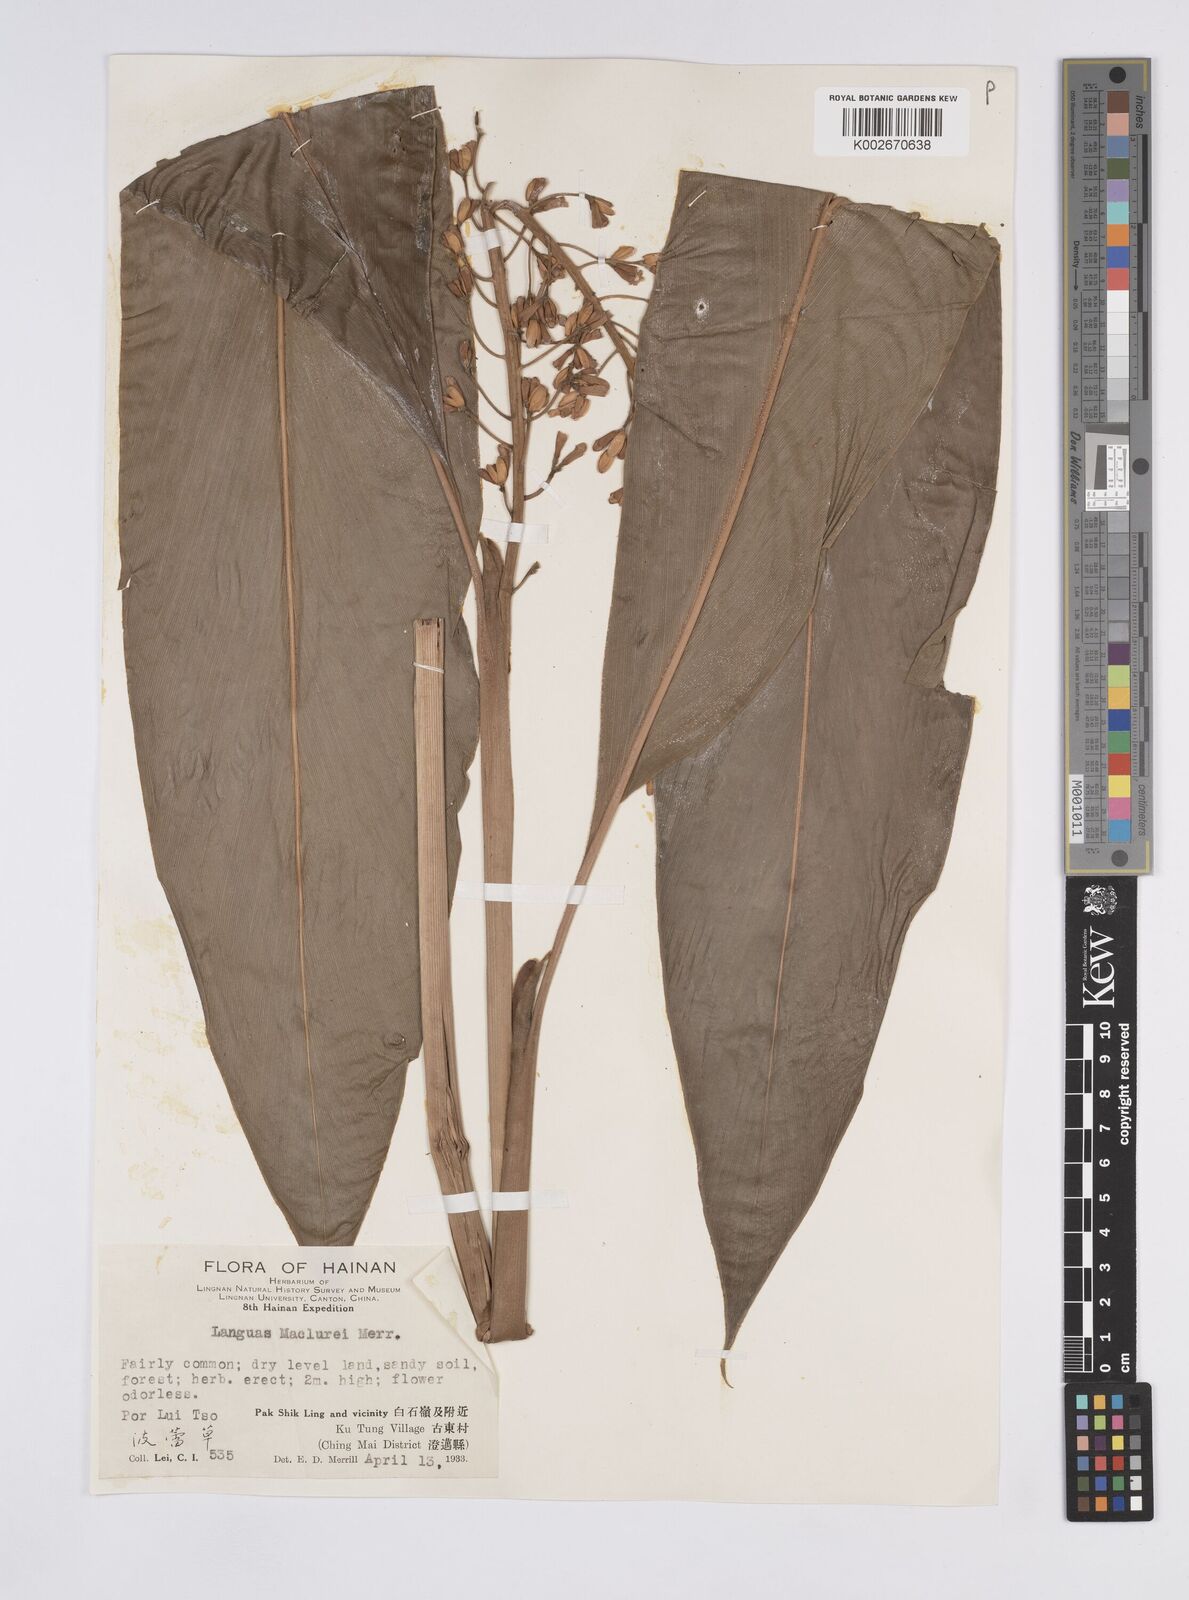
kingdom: Plantae
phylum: Tracheophyta
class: Liliopsida
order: Zingiberales
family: Zingiberaceae
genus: Alpinia
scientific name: Alpinia maclurei
